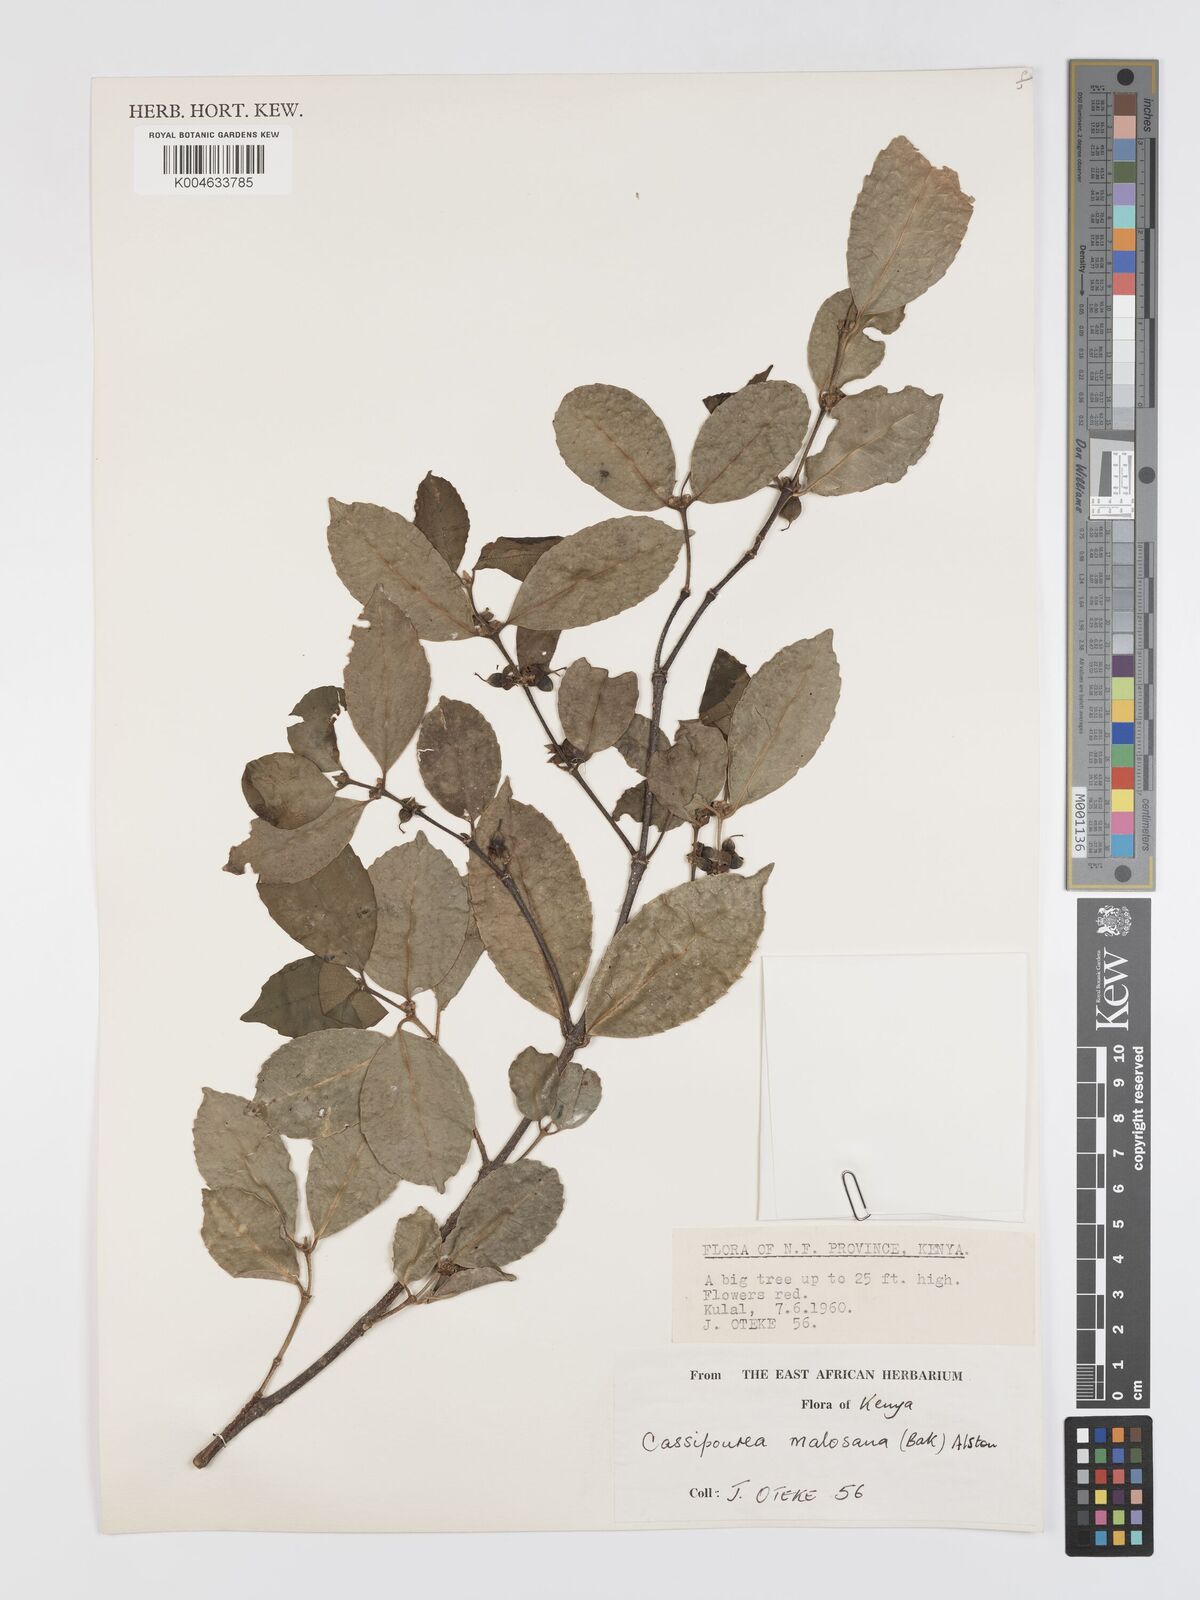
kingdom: Plantae
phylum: Tracheophyta
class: Magnoliopsida
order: Malpighiales
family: Rhizophoraceae
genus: Cassipourea
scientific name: Cassipourea malosana
